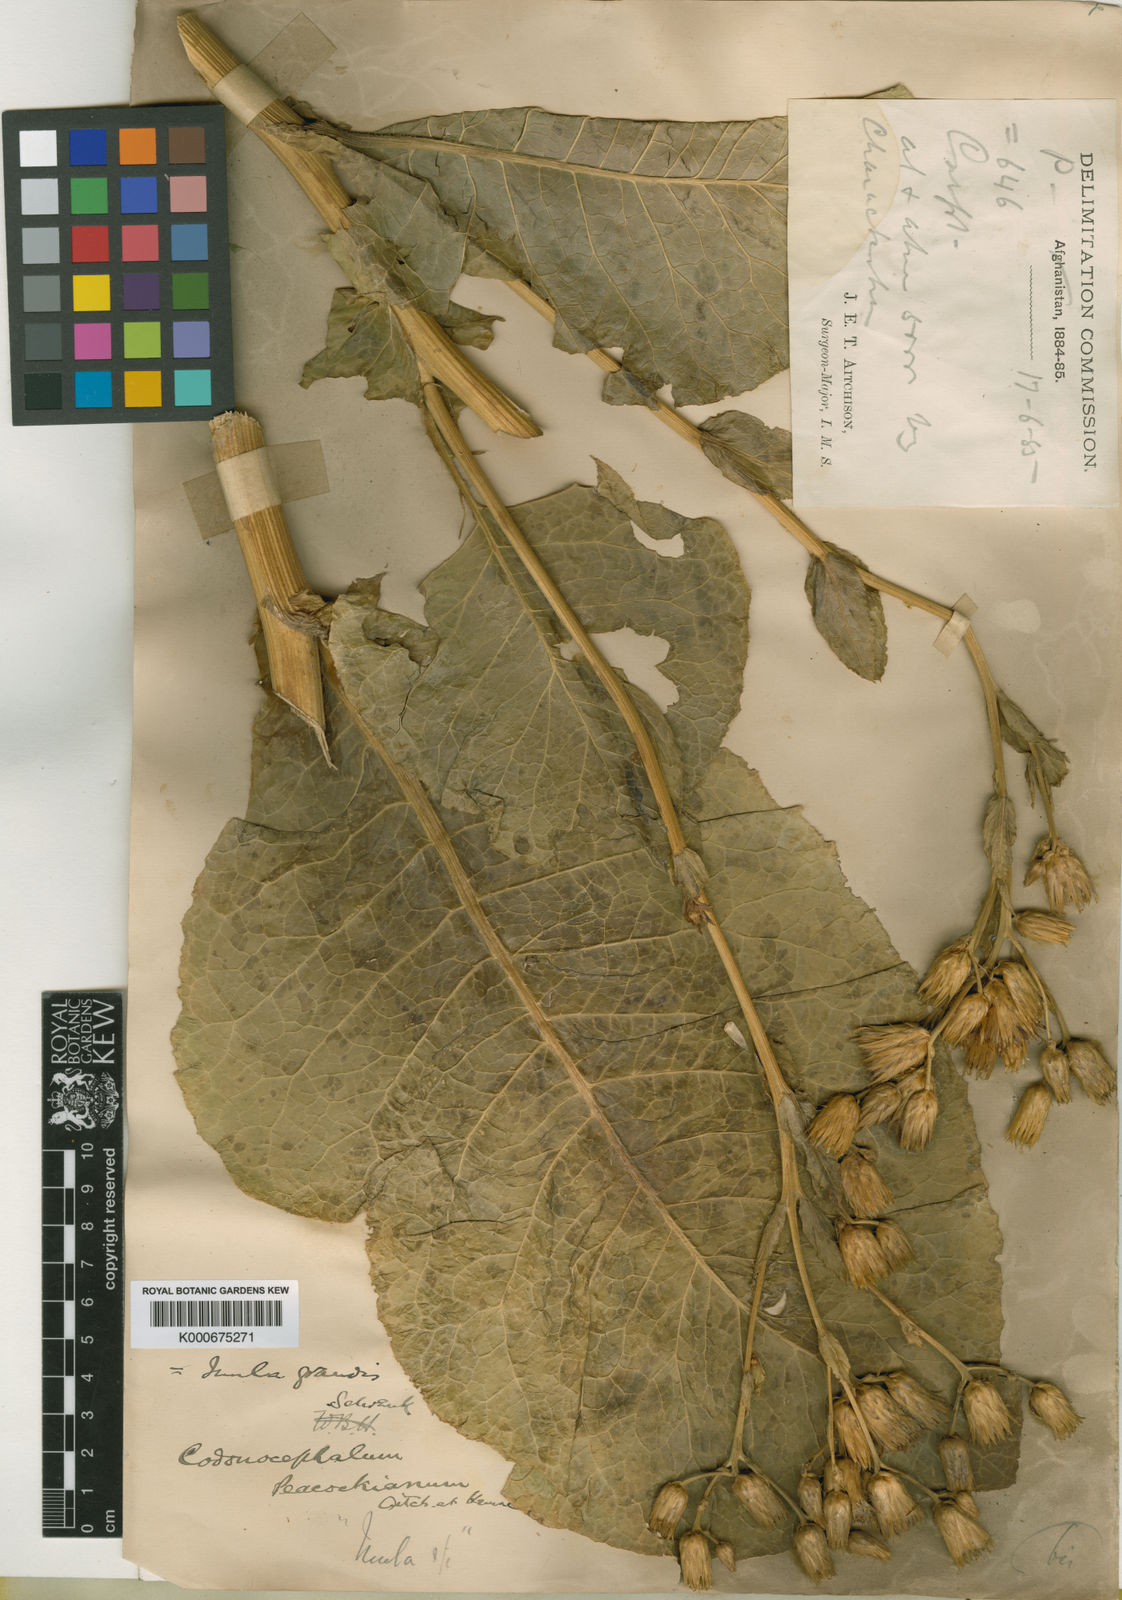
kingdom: Plantae
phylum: Tracheophyta
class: Magnoliopsida
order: Asterales
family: Asteraceae
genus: Inula
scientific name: Inula peacockiana
